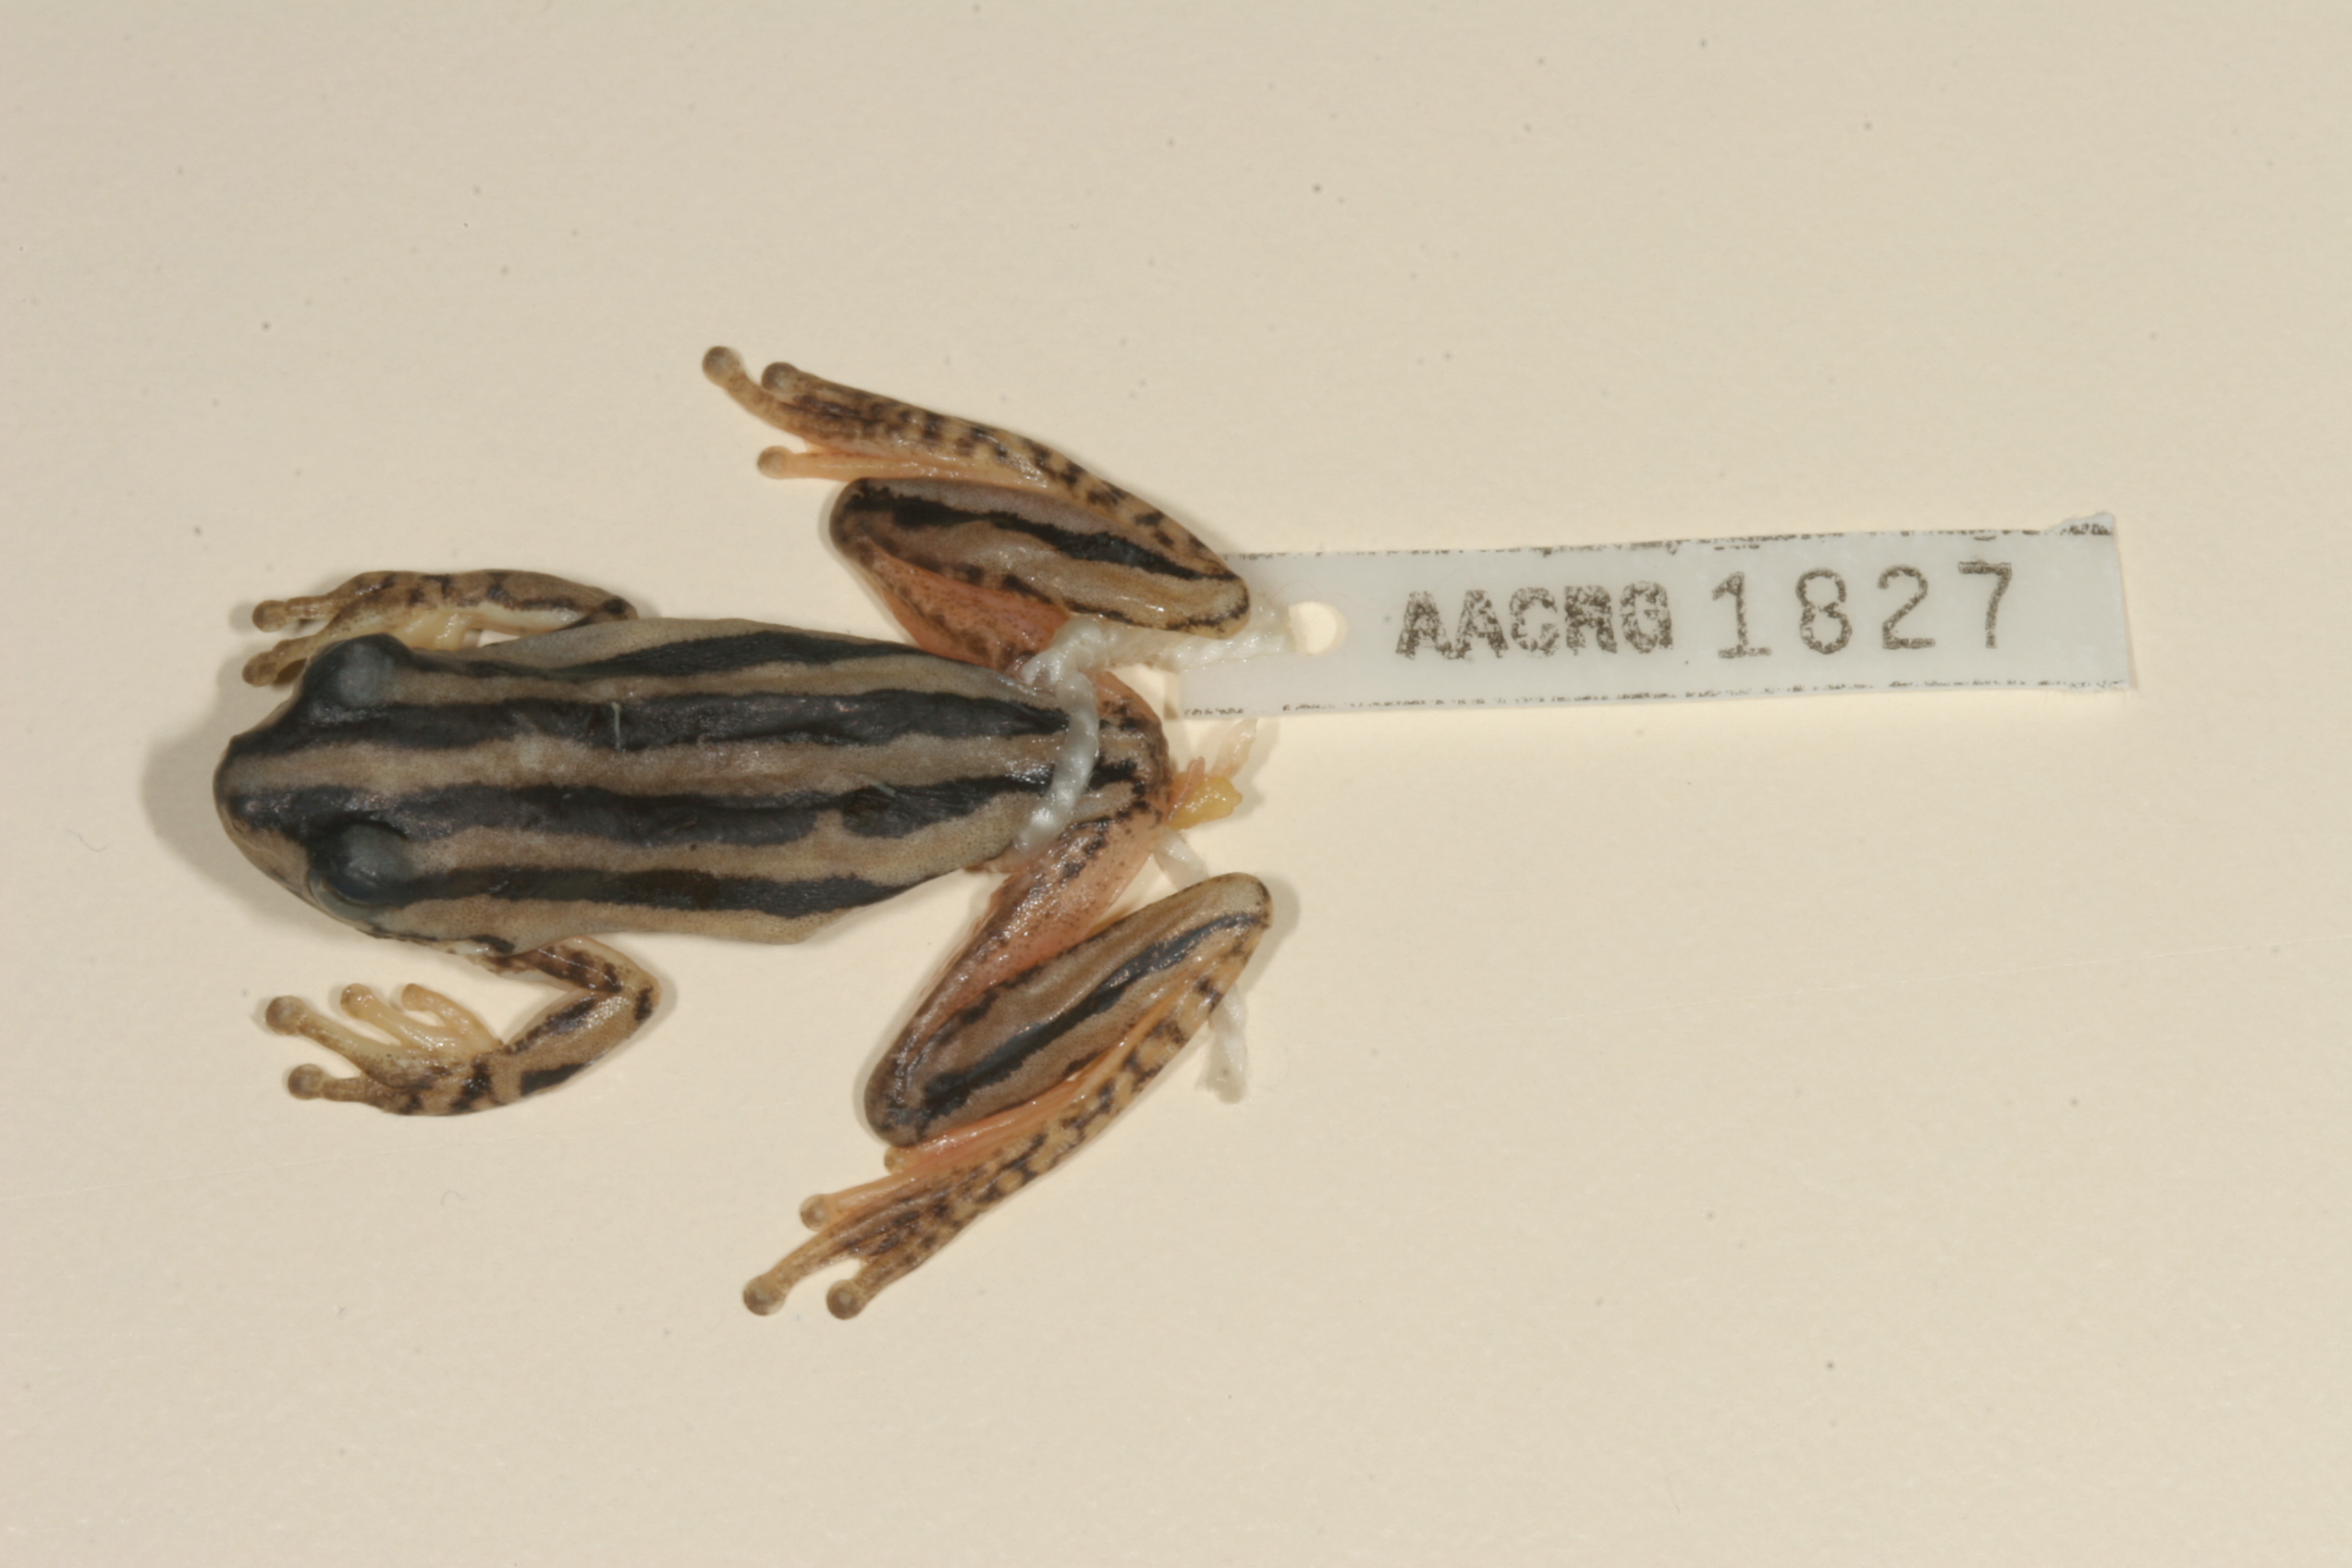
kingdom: Animalia
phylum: Chordata
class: Amphibia
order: Anura
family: Hyperoliidae
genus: Hyperolius
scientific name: Hyperolius marmoratus
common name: Painted reed frog
